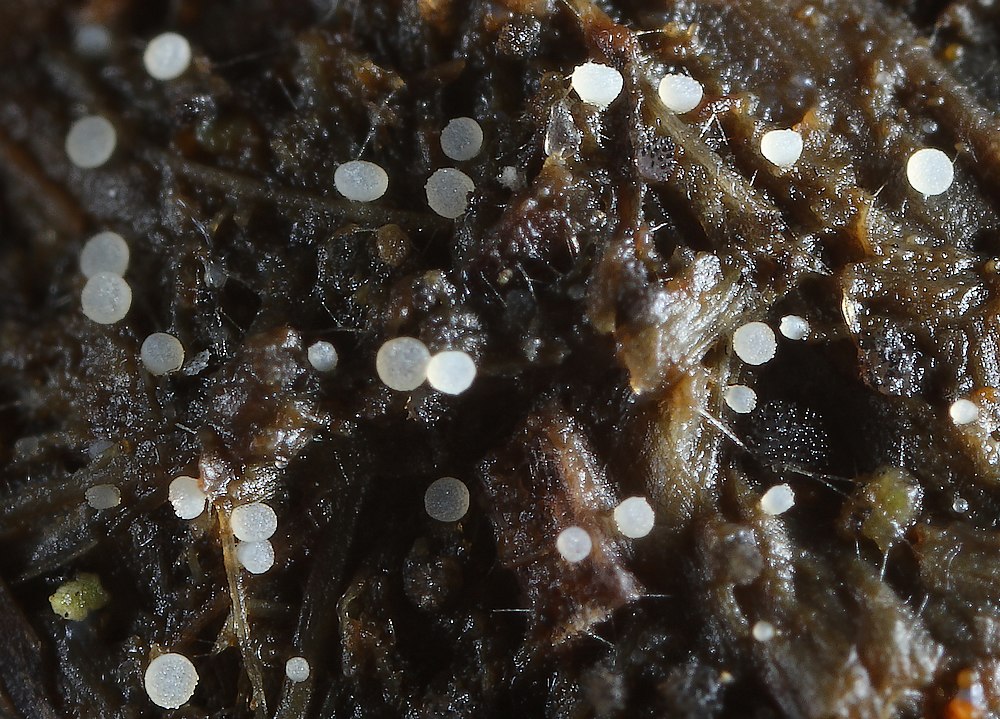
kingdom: Fungi
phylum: Ascomycota
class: Pezizomycetes
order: Pezizales
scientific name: Pezizales
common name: bægersvampordenen
